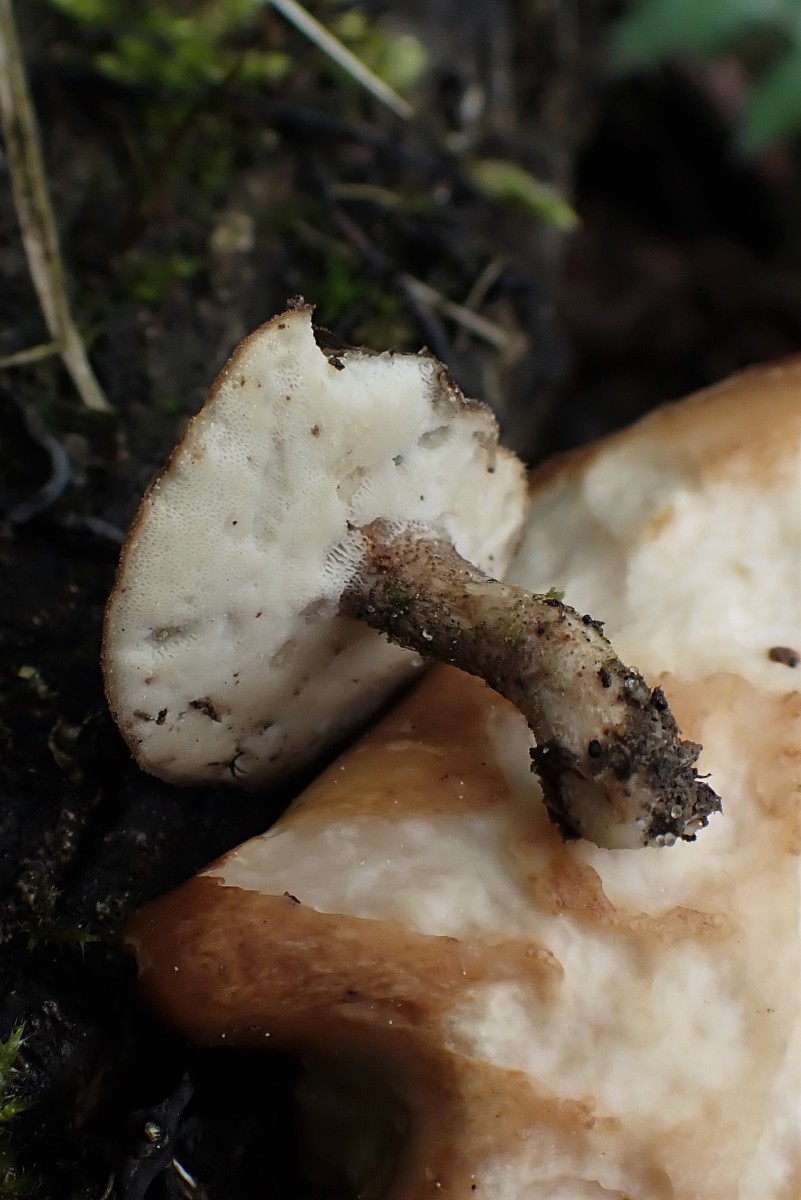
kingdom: Fungi
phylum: Basidiomycota
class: Agaricomycetes
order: Polyporales
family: Polyporaceae
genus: Lentinus
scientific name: Lentinus substrictus
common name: forårs-stilkporesvamp
